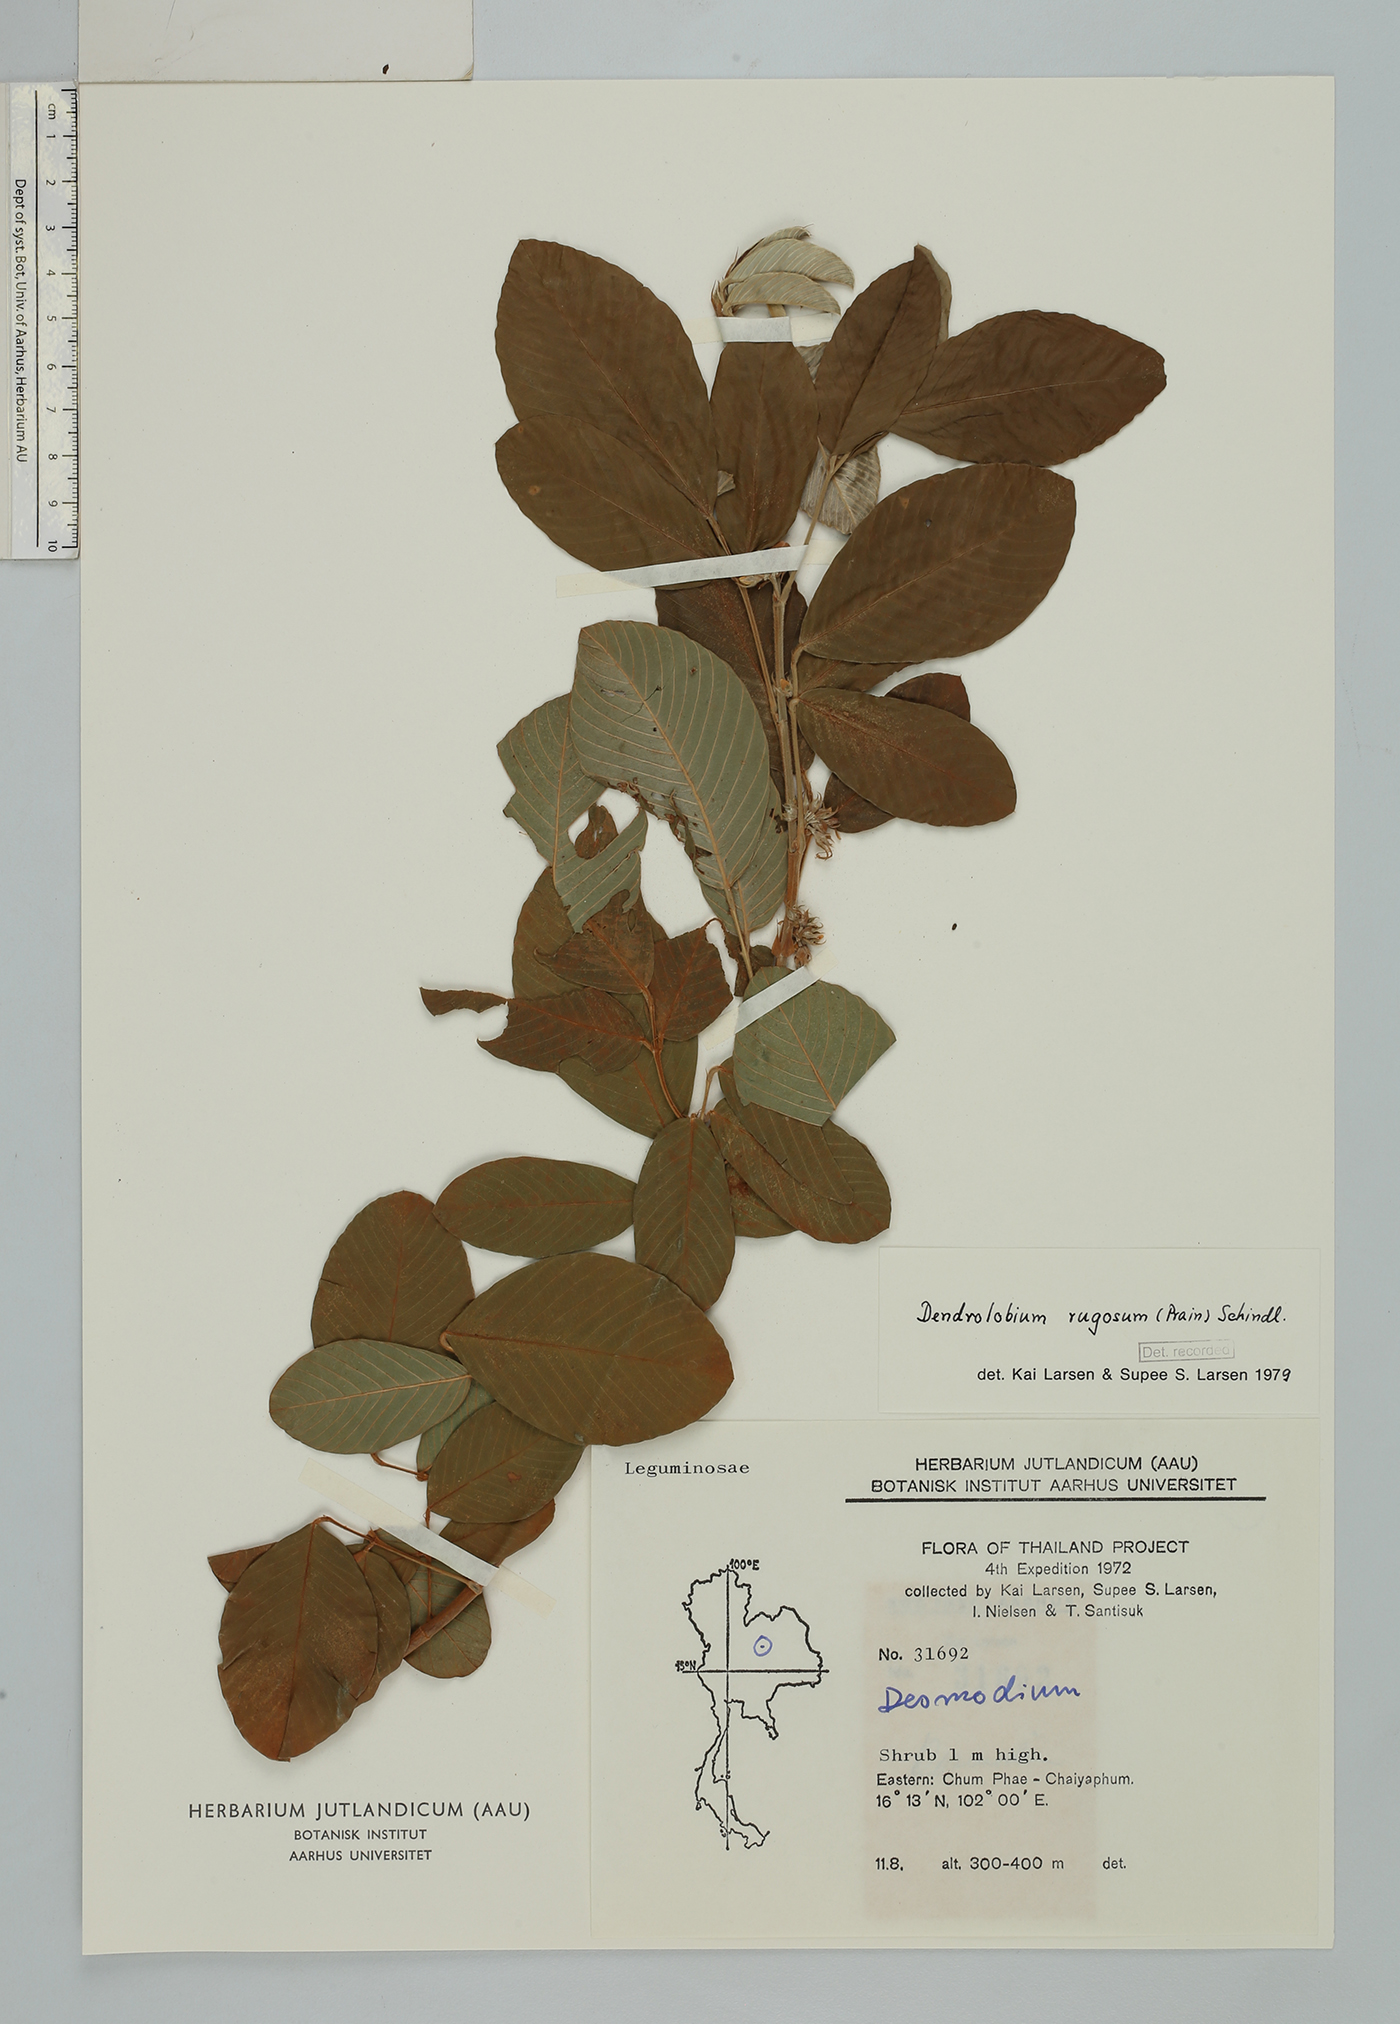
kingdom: Plantae
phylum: Tracheophyta
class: Magnoliopsida
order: Fabales
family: Fabaceae
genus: Dendrolobium
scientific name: Dendrolobium rugosum
